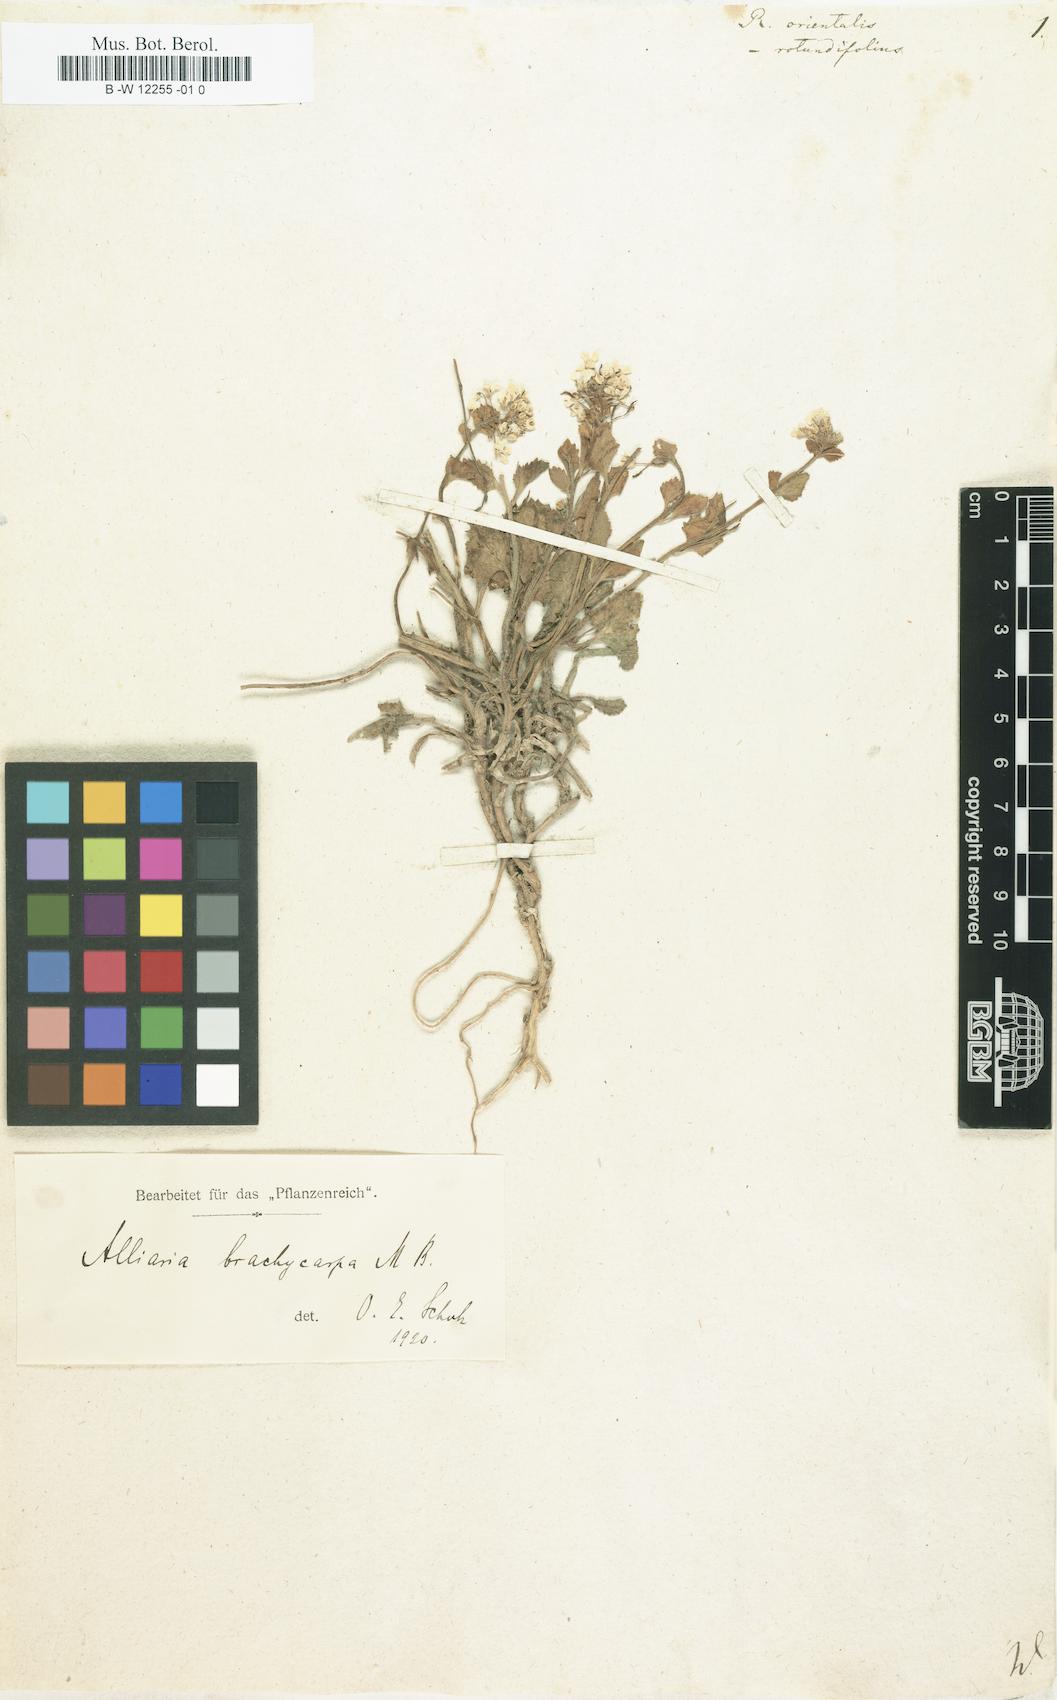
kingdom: Plantae
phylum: Tracheophyta
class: Magnoliopsida
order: Brassicales
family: Brassicaceae
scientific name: Brassicaceae
